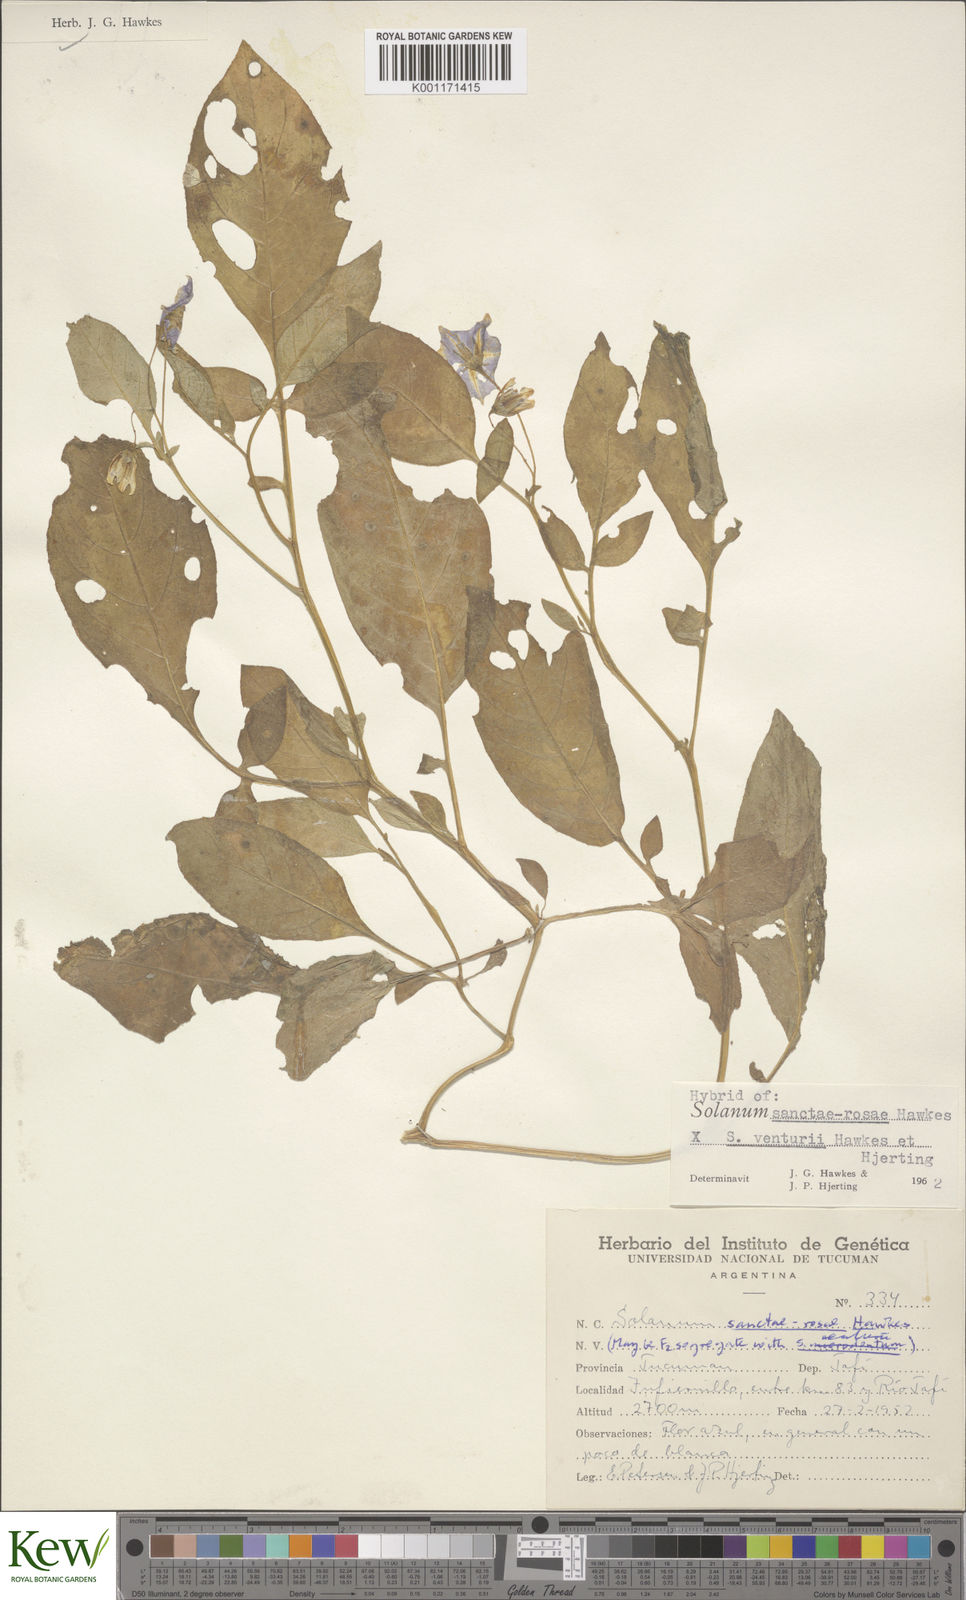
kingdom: Plantae
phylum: Tracheophyta
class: Magnoliopsida
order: Solanales
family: Solanaceae
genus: Solanum
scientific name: Solanum boliviense
